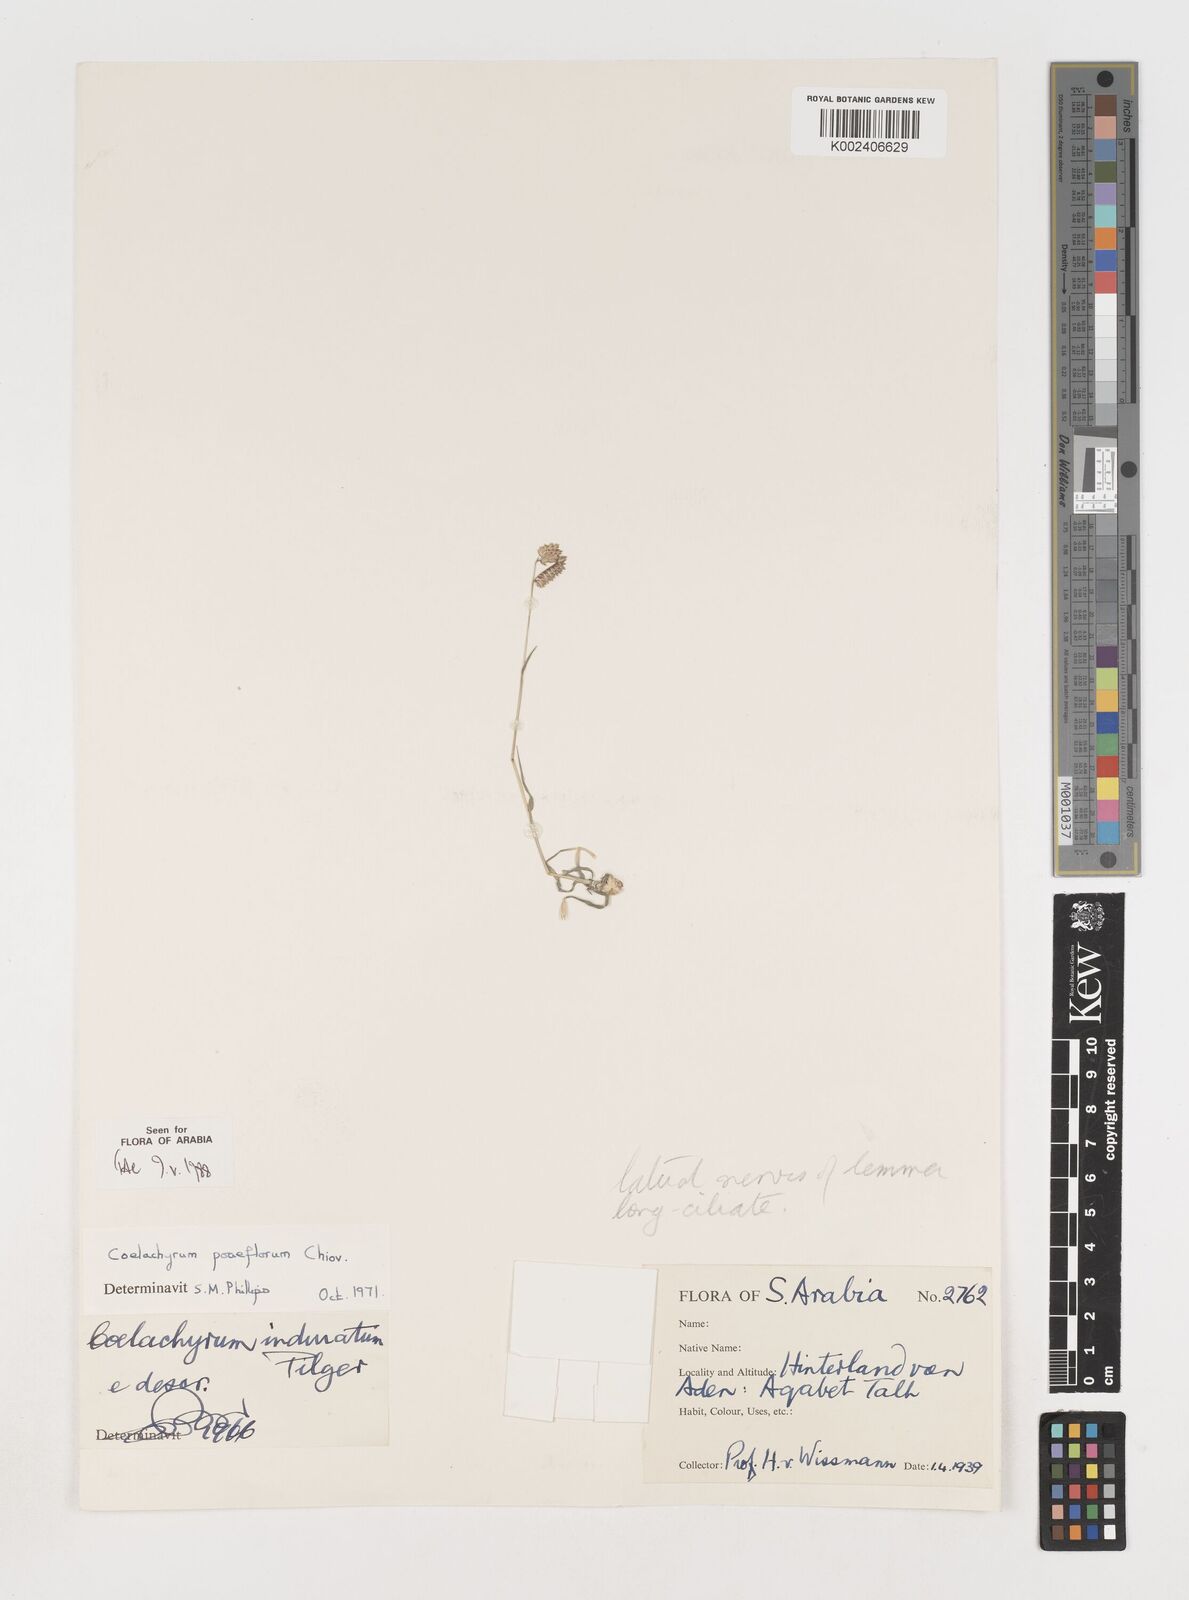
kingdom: Plantae
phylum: Tracheophyta
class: Liliopsida
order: Poales
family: Poaceae
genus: Coelachyrum
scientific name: Coelachyrum poiflorum
